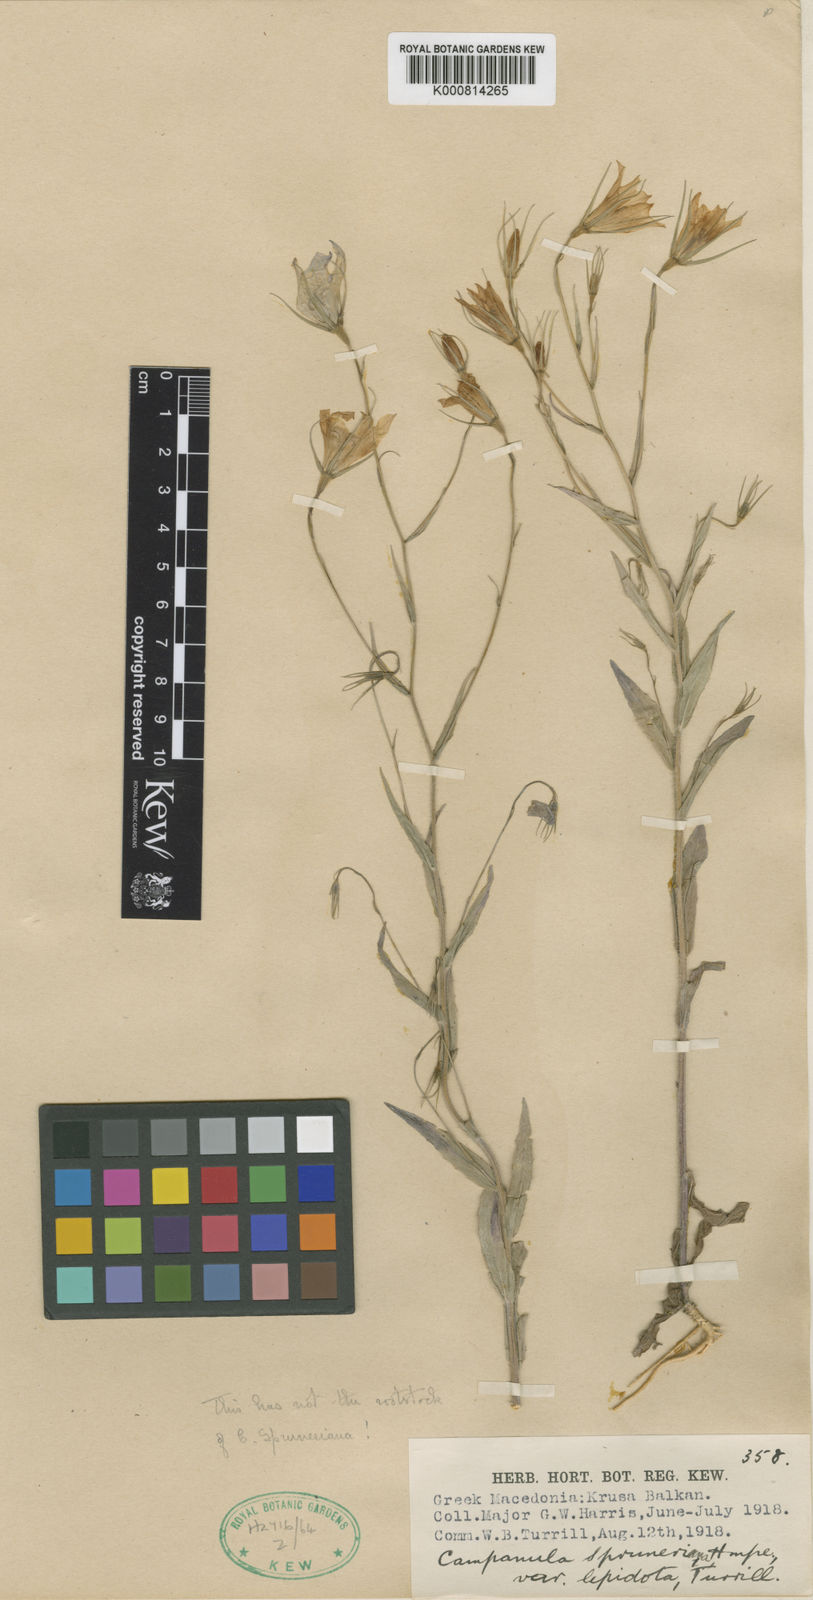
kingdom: Plantae
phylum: Tracheophyta
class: Magnoliopsida
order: Asterales
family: Campanulaceae
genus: Campanula
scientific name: Campanula trichopoda
